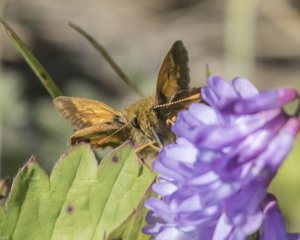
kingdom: Animalia
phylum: Arthropoda
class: Insecta
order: Lepidoptera
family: Hesperiidae
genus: Lon
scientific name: Lon hobomok
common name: Hobomok Skipper
